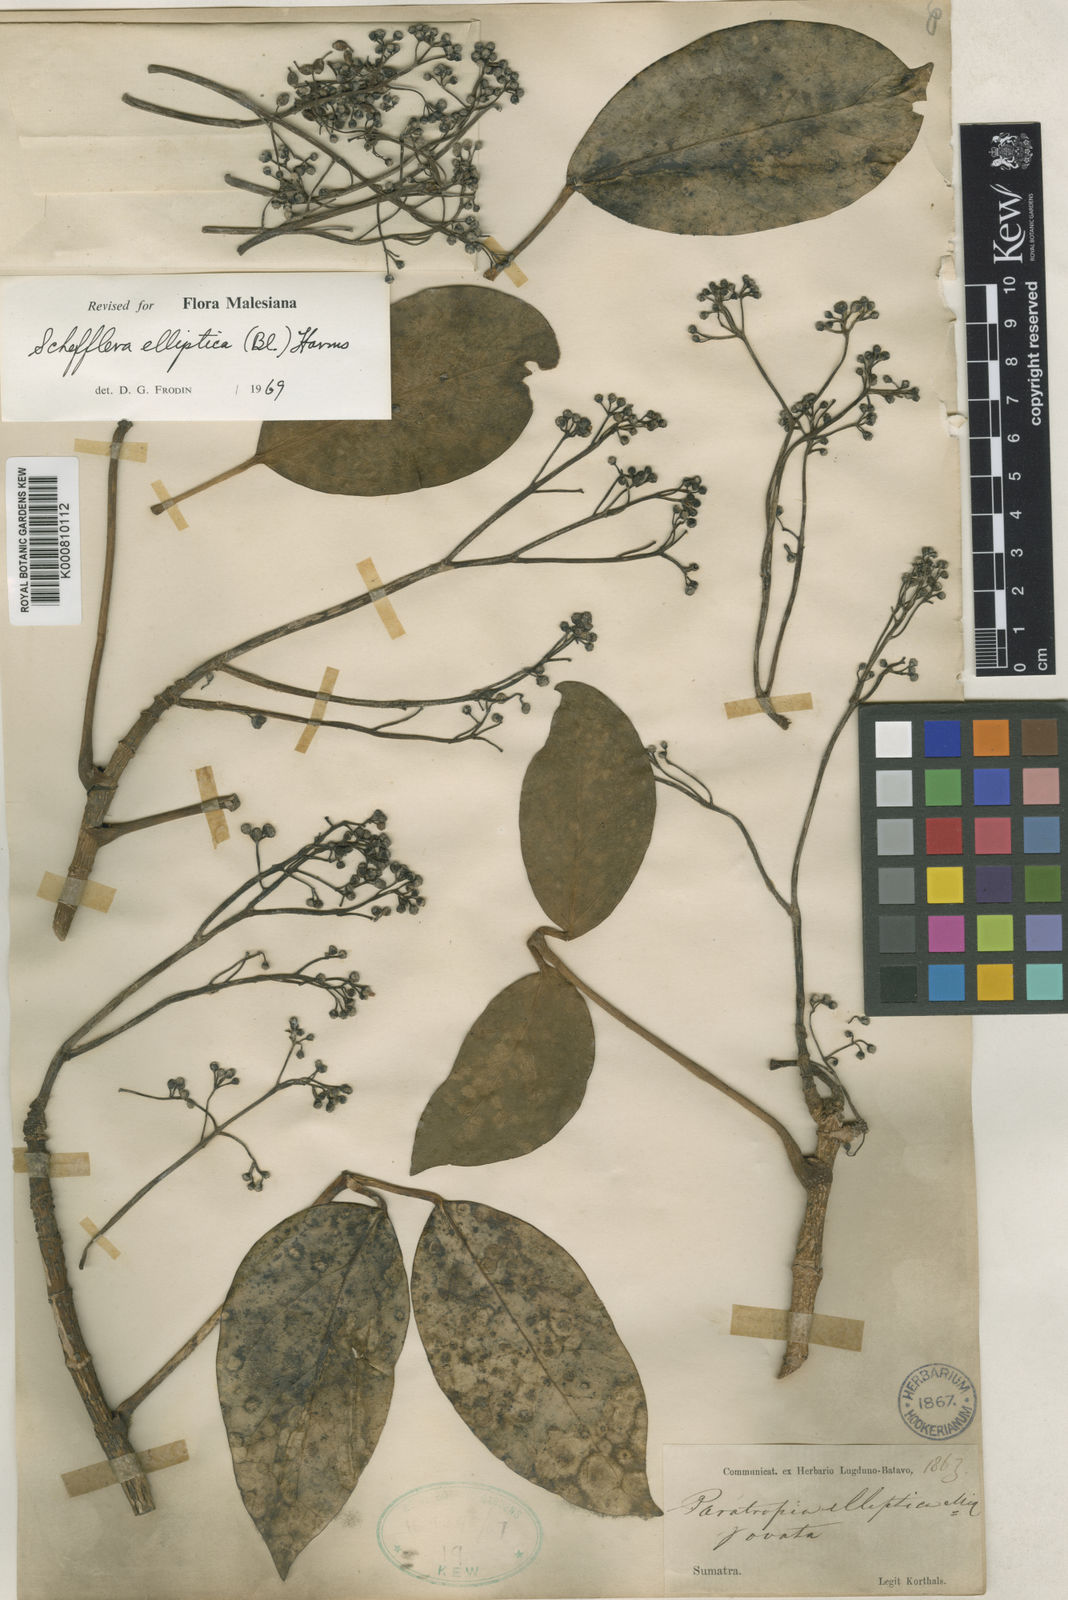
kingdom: Plantae
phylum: Tracheophyta
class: Magnoliopsida
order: Apiales
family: Araliaceae
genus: Heptapleurum
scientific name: Heptapleurum ellipticum
